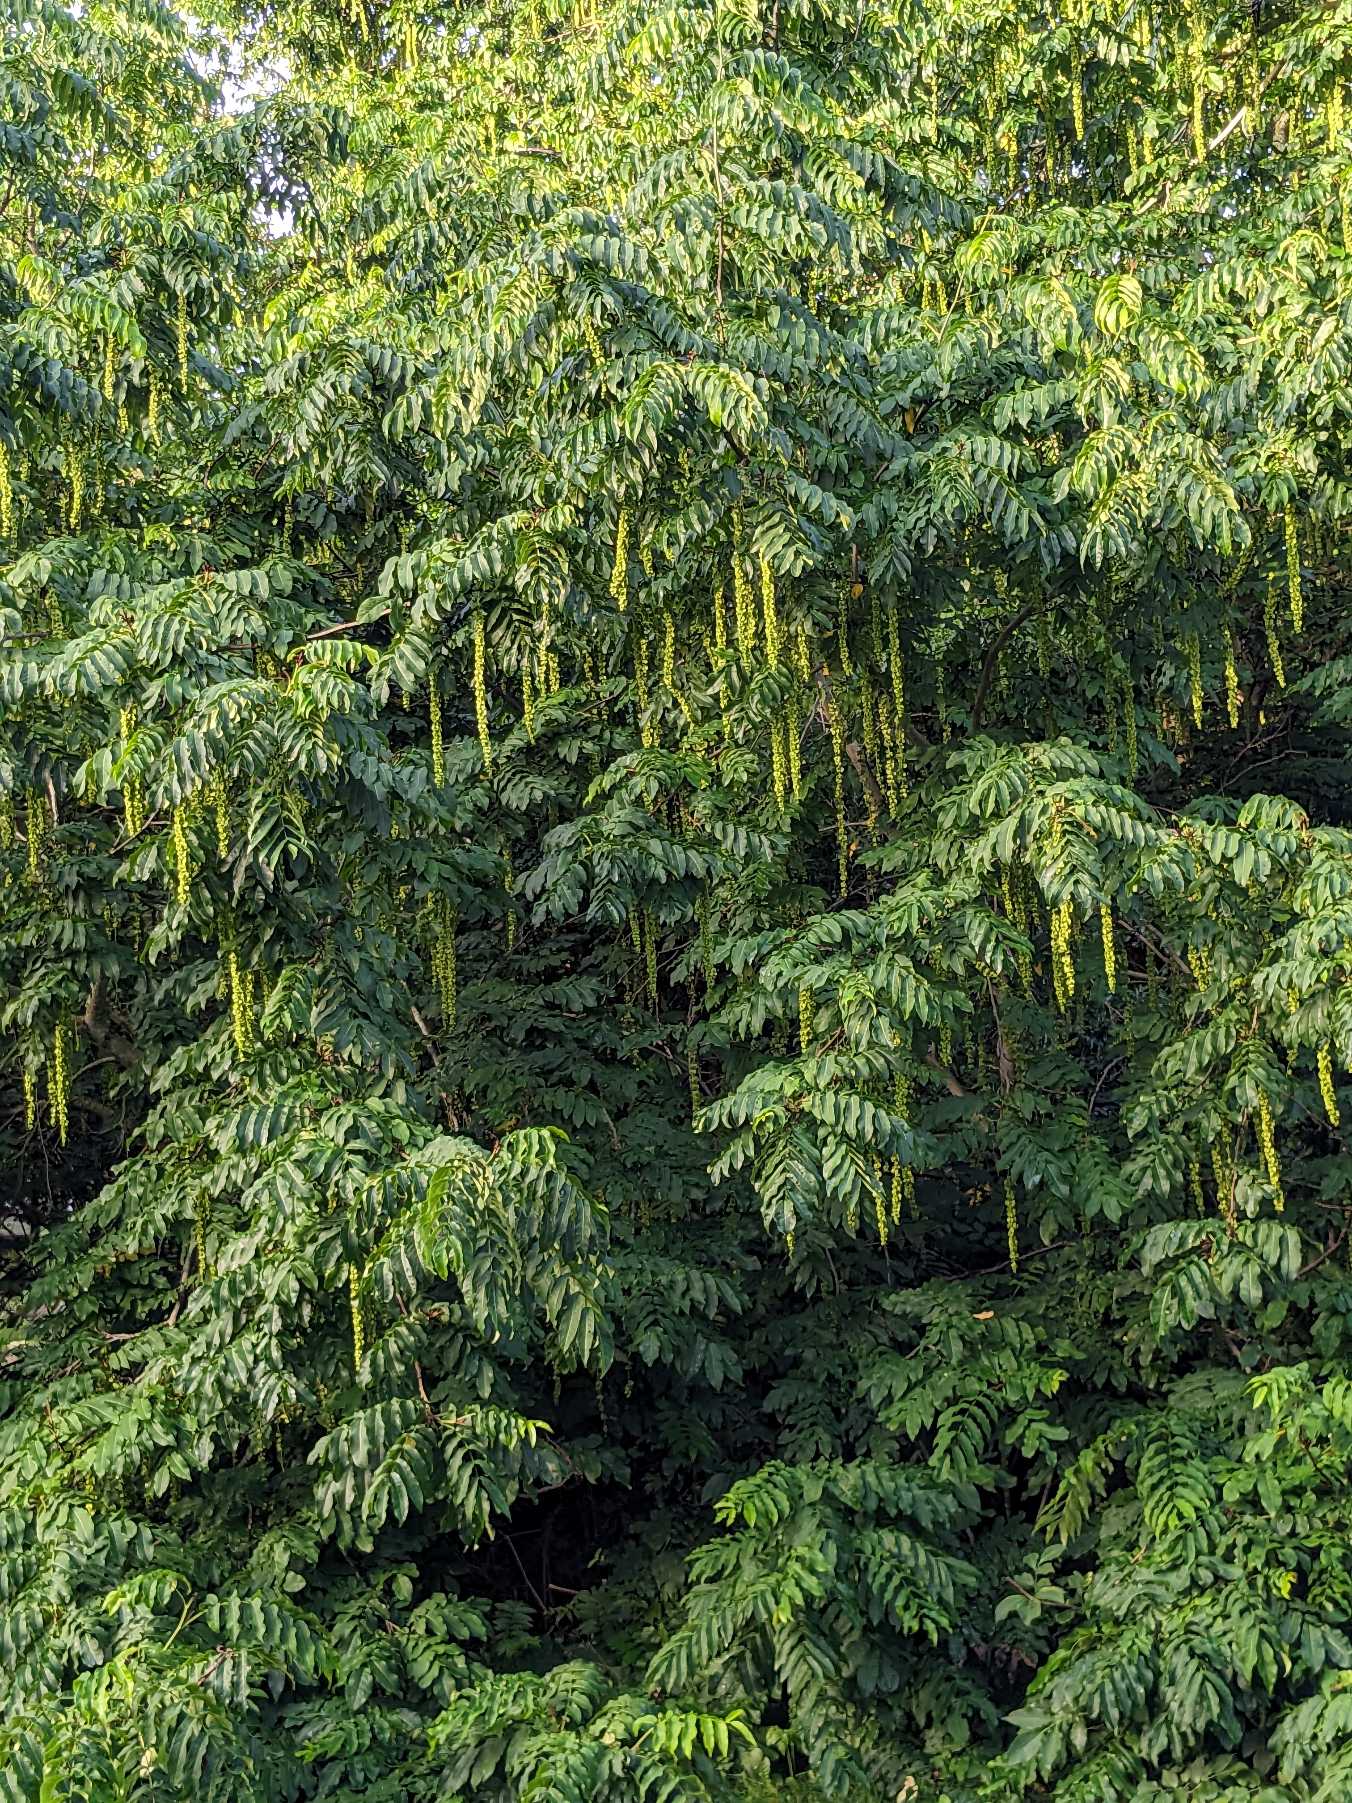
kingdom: Plantae
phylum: Tracheophyta
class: Magnoliopsida
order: Fagales
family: Juglandaceae
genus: Pterocarya
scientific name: Pterocarya fraxinifolia
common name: Kaukasisk vingevalnød
